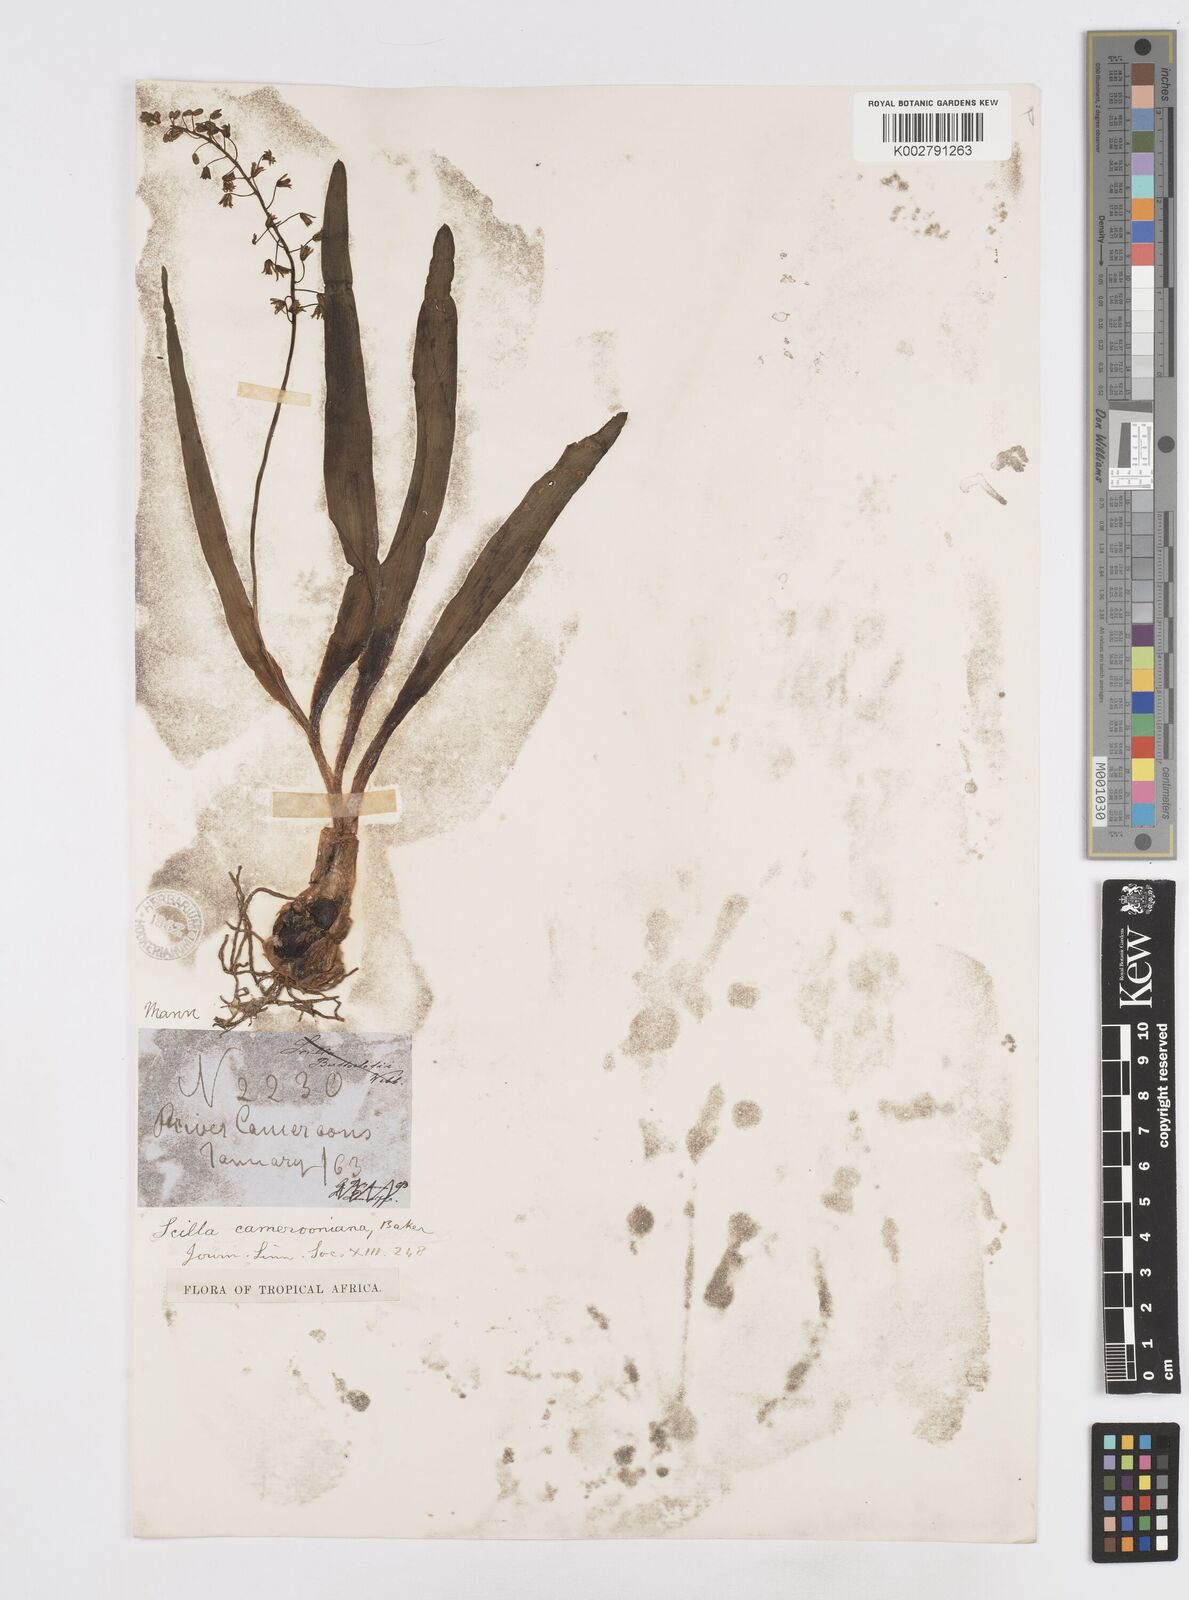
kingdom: Plantae
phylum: Tracheophyta
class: Liliopsida
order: Asparagales
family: Asparagaceae
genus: Ledebouria
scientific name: Ledebouria camerooniana
